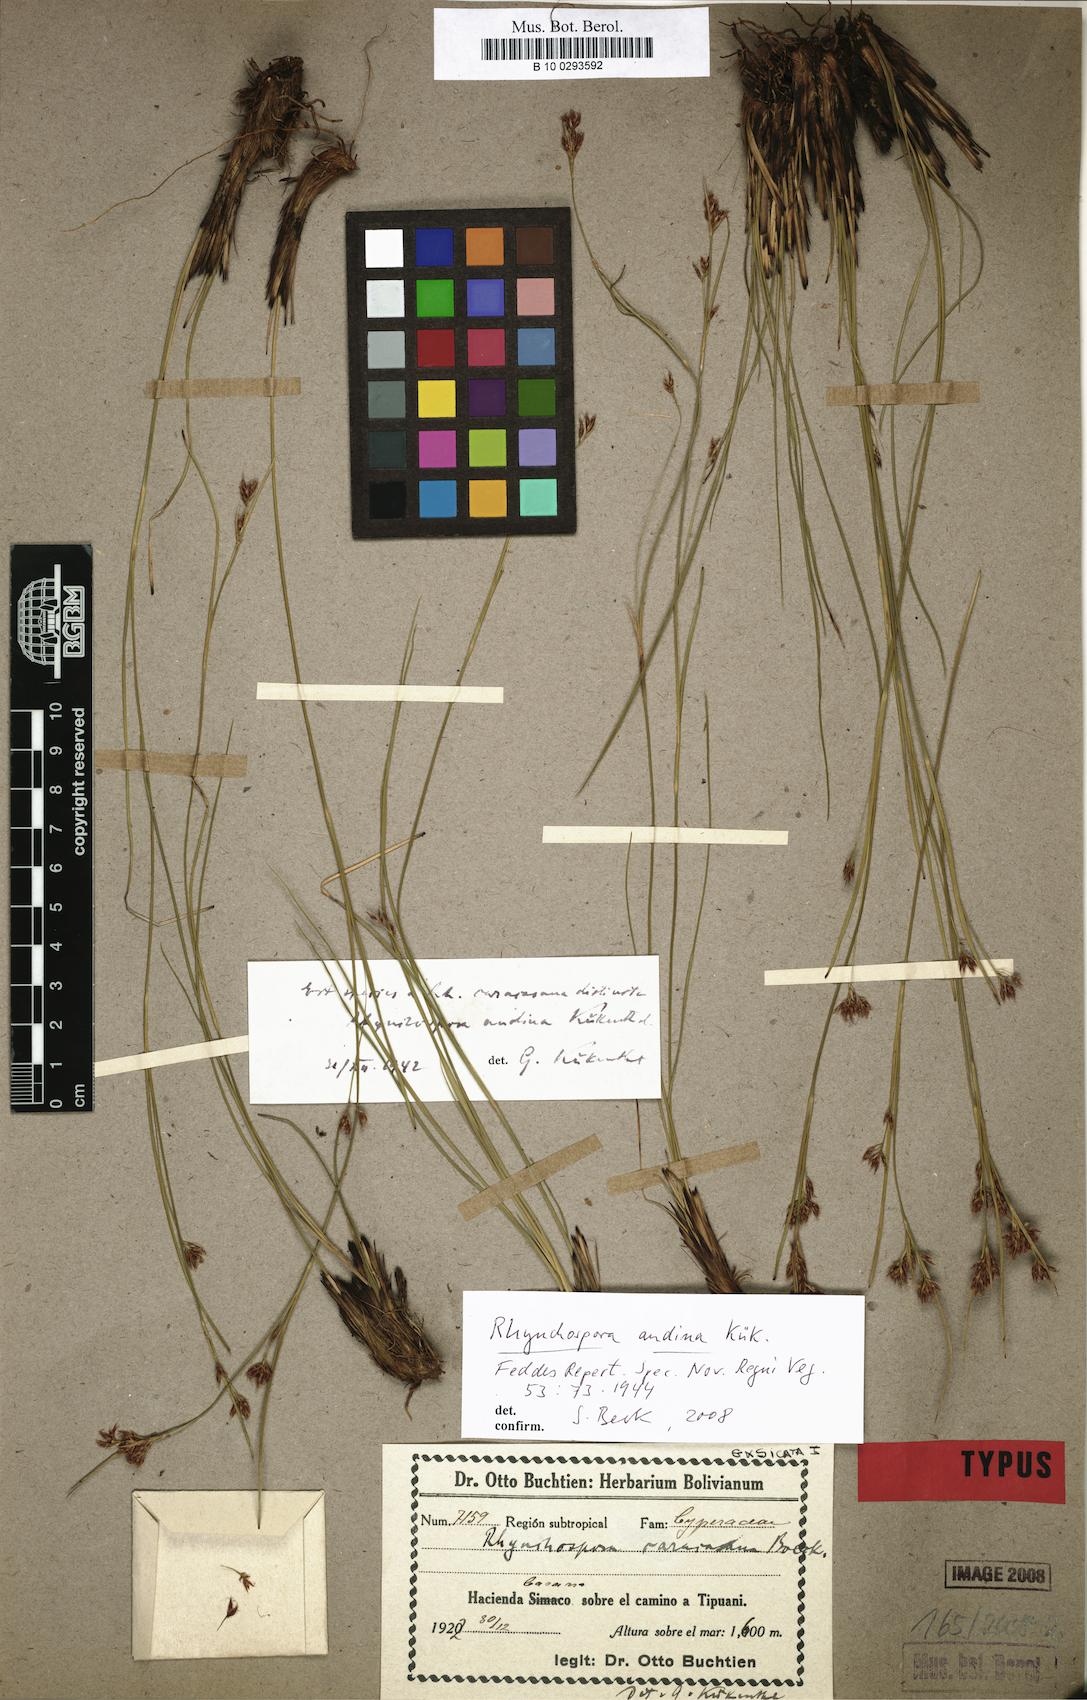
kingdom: Plantae
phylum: Tracheophyta
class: Liliopsida
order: Poales
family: Cyperaceae
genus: Rhynchospora
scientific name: Rhynchospora caracasana
